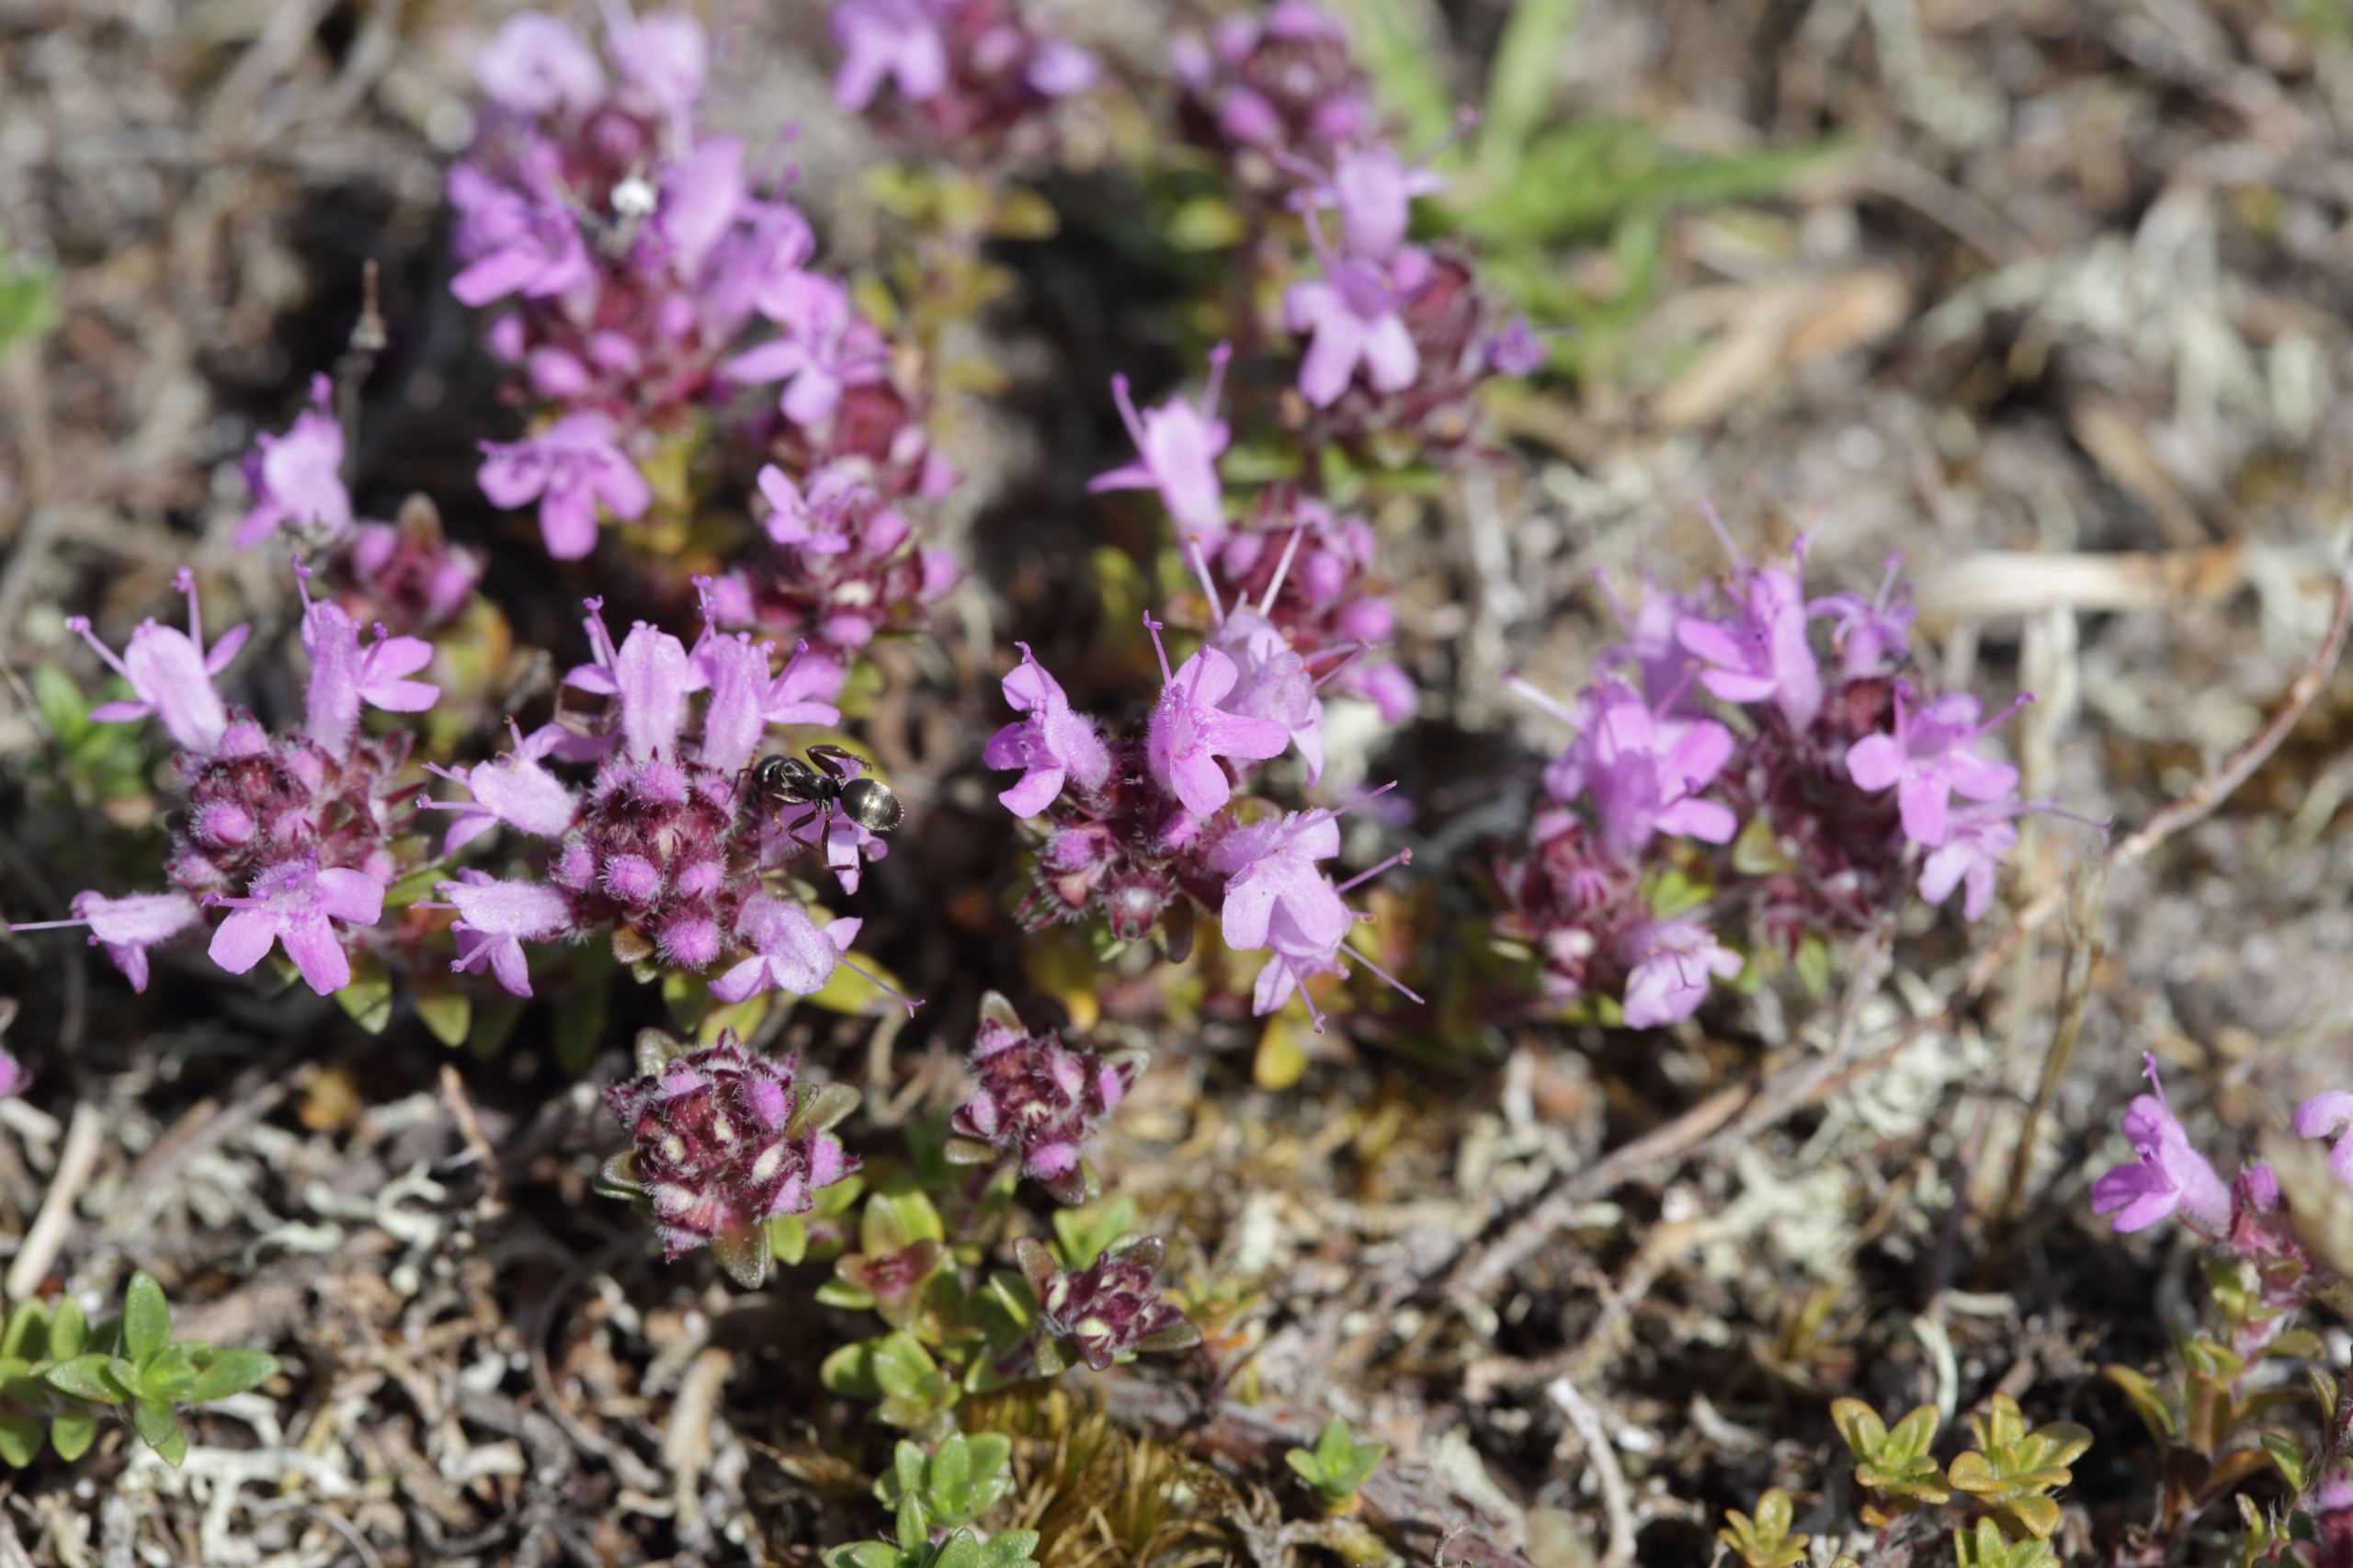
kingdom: Plantae
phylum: Tracheophyta
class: Magnoliopsida
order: Lamiales
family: Lamiaceae
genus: Thymus
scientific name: Thymus serpyllum
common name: Smalbladet timian
